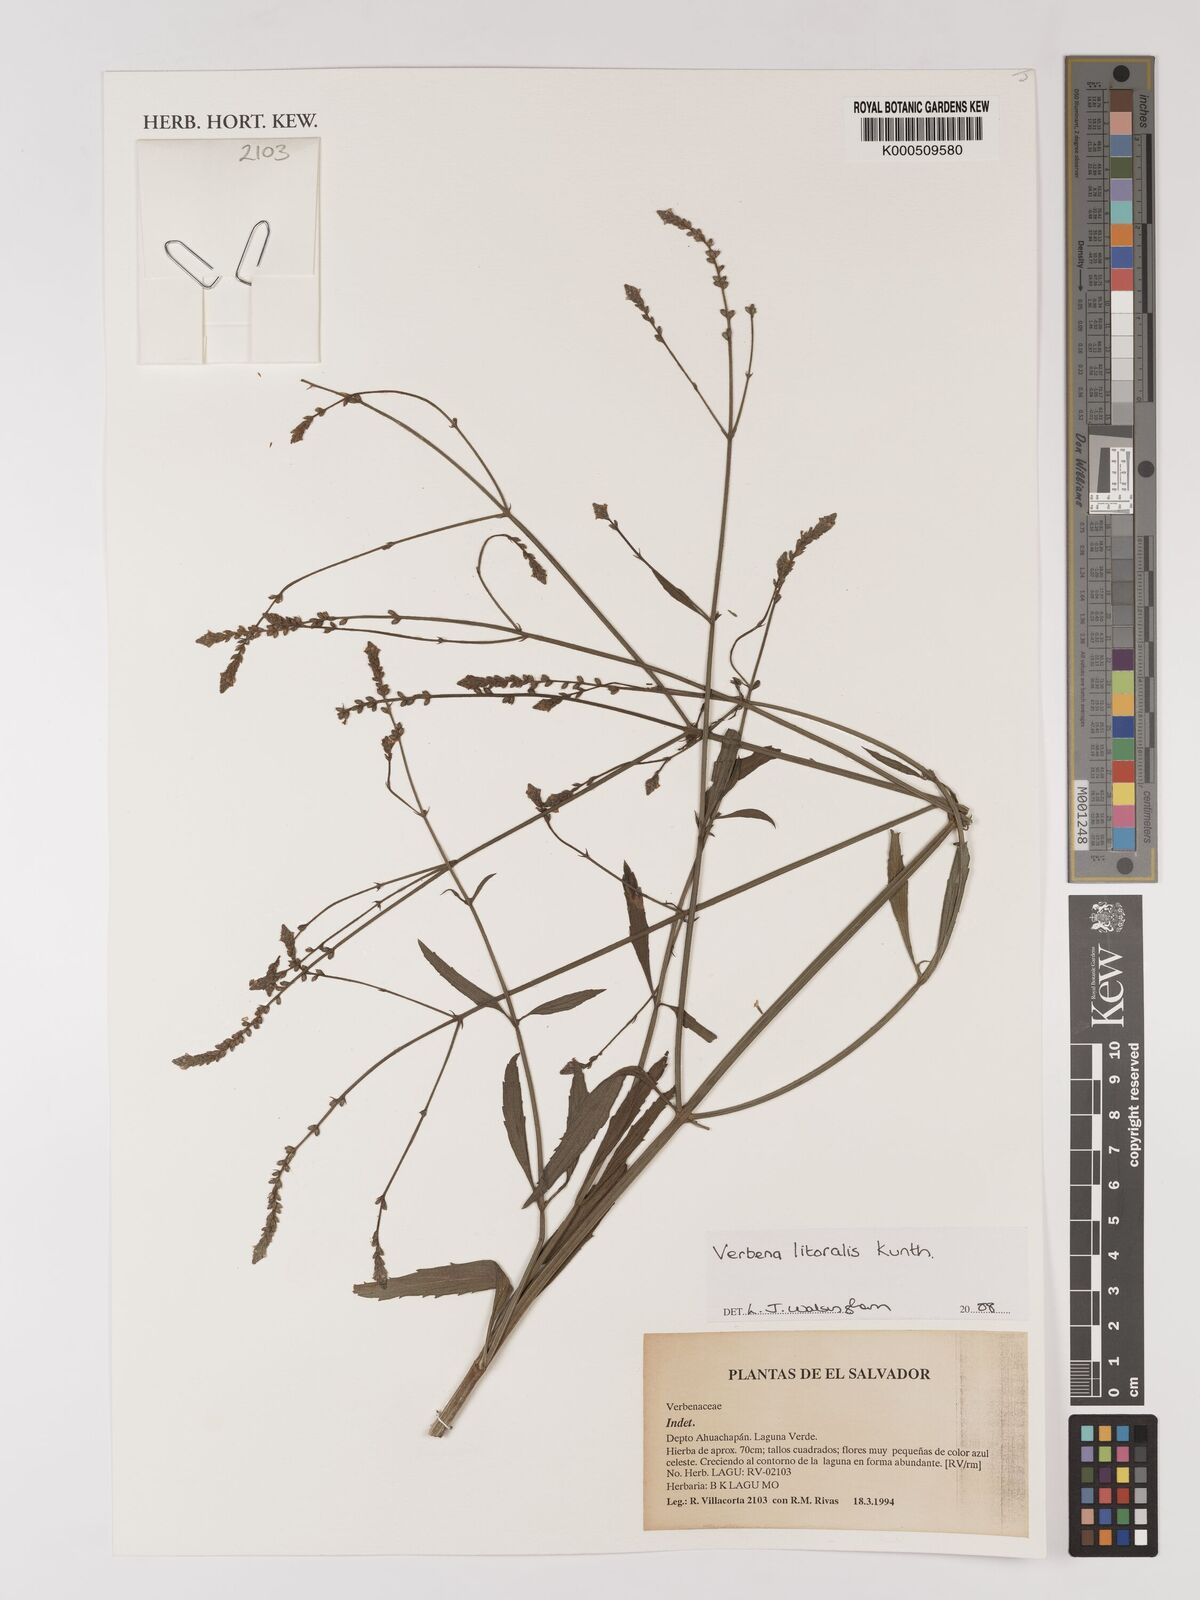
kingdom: Plantae
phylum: Tracheophyta
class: Magnoliopsida
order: Lamiales
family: Verbenaceae
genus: Verbena
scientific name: Verbena litoralis
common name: Seashore vervain
